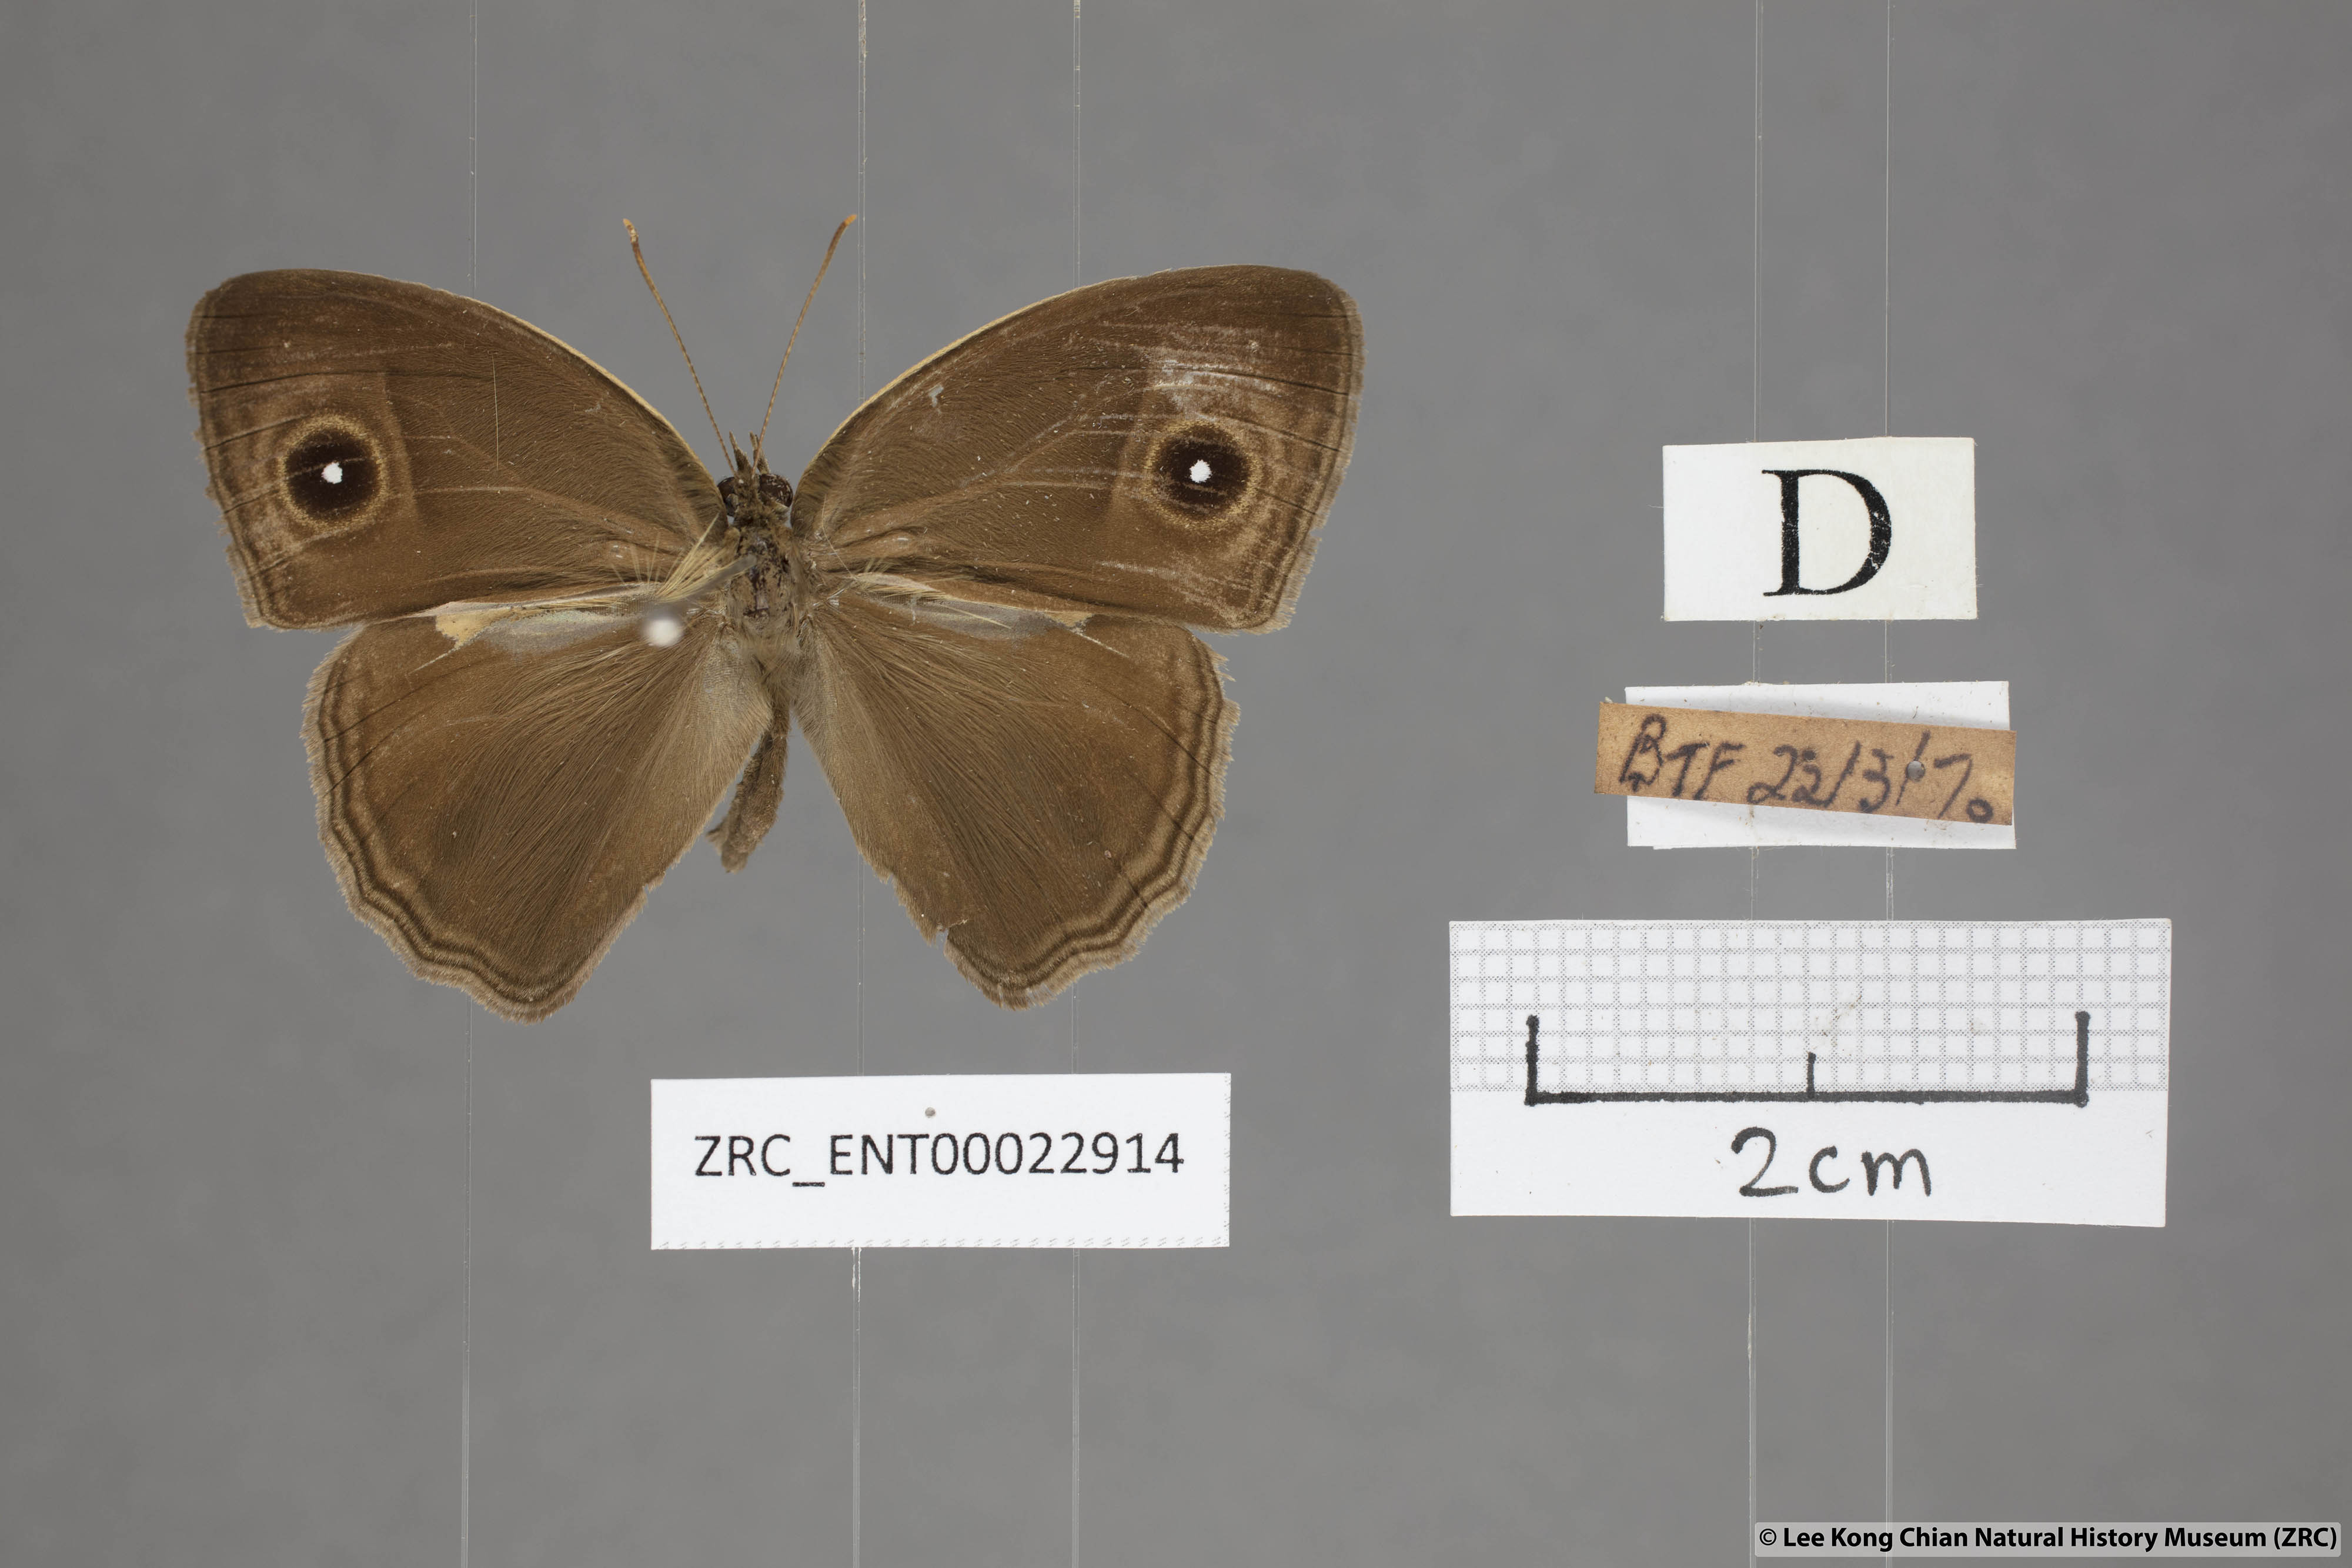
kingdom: Animalia
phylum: Arthropoda
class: Insecta
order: Lepidoptera
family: Nymphalidae
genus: Mycalesis
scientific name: Mycalesis horsfieldii
